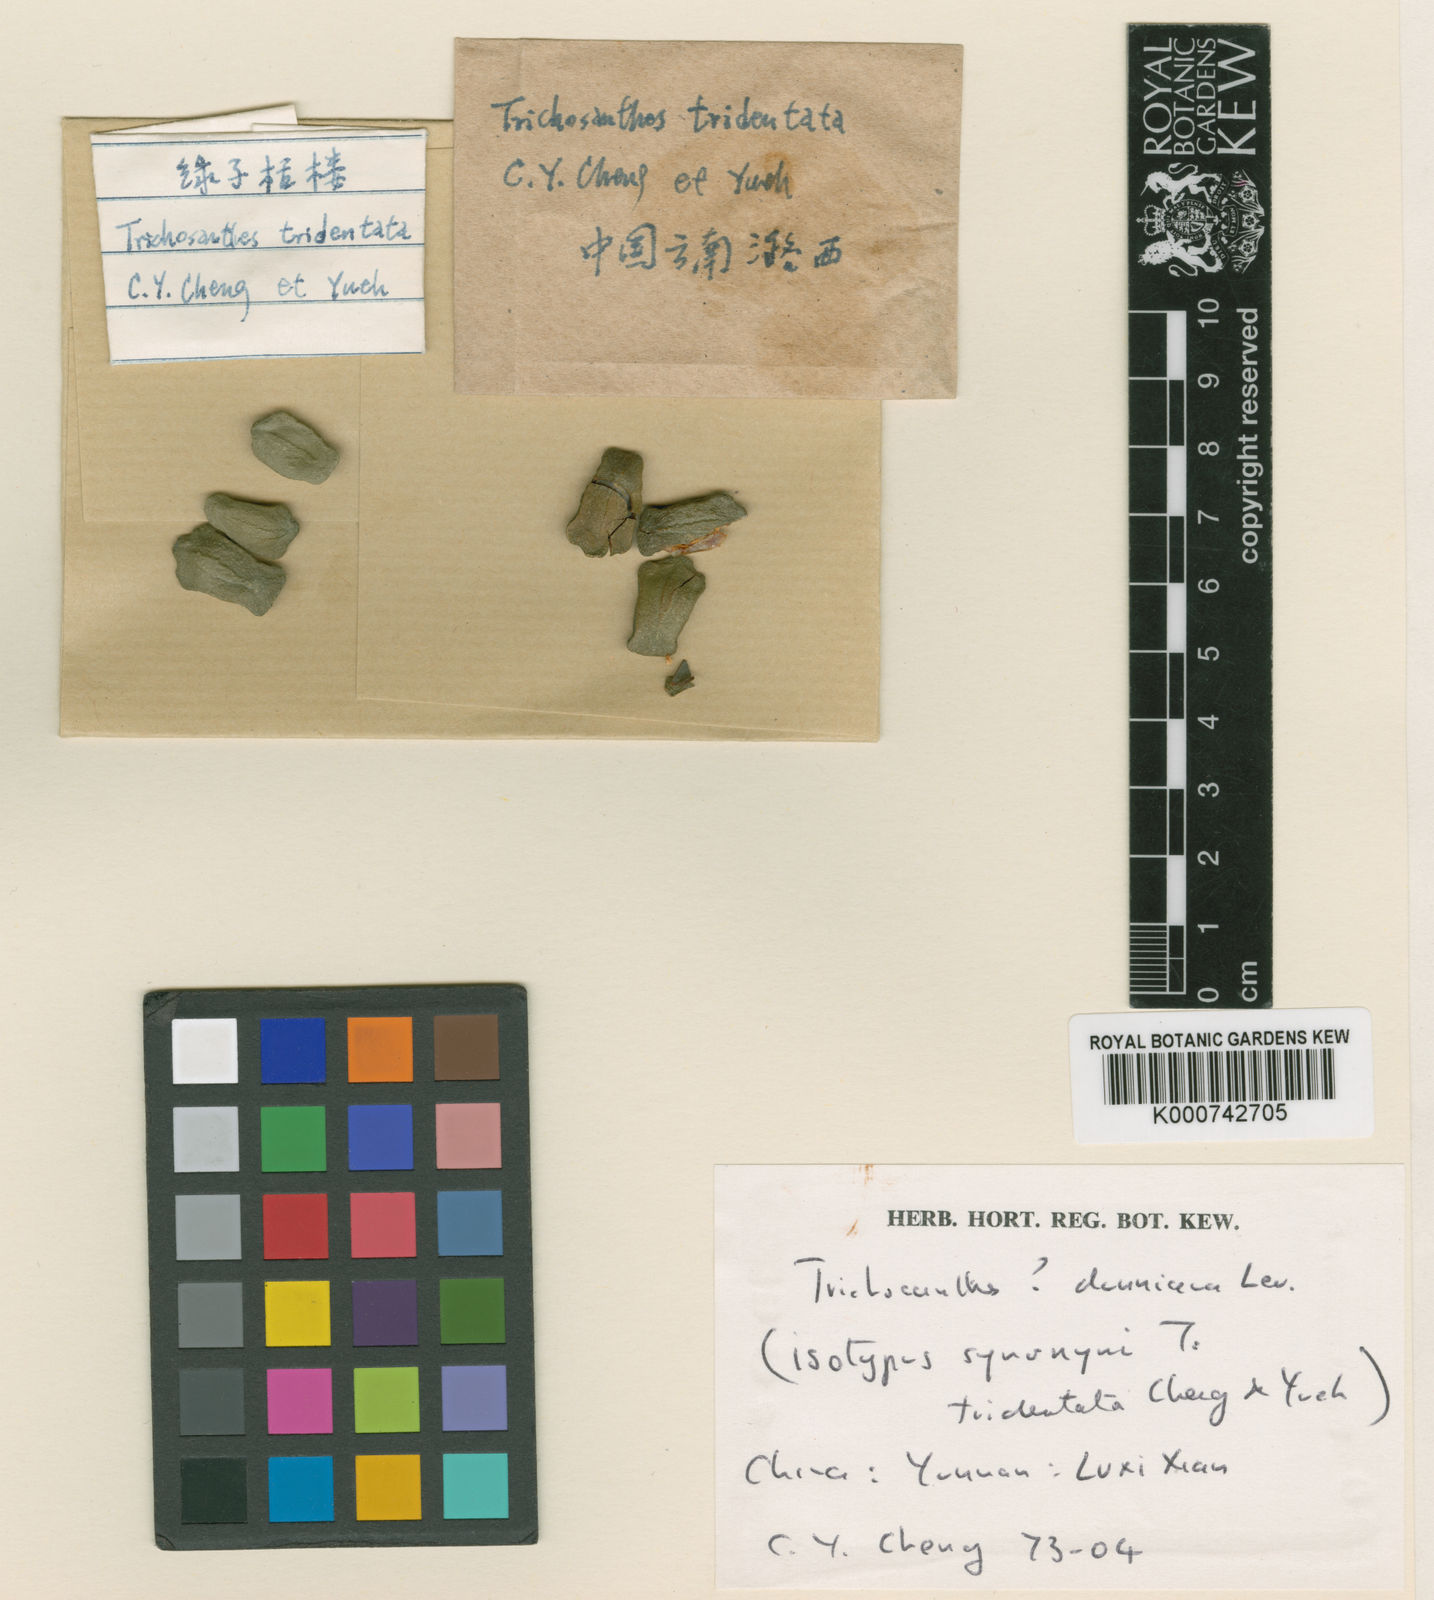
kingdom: Plantae
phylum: Tracheophyta
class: Magnoliopsida
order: Cucurbitales
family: Cucurbitaceae
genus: Trichosanthes
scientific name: Trichosanthes
